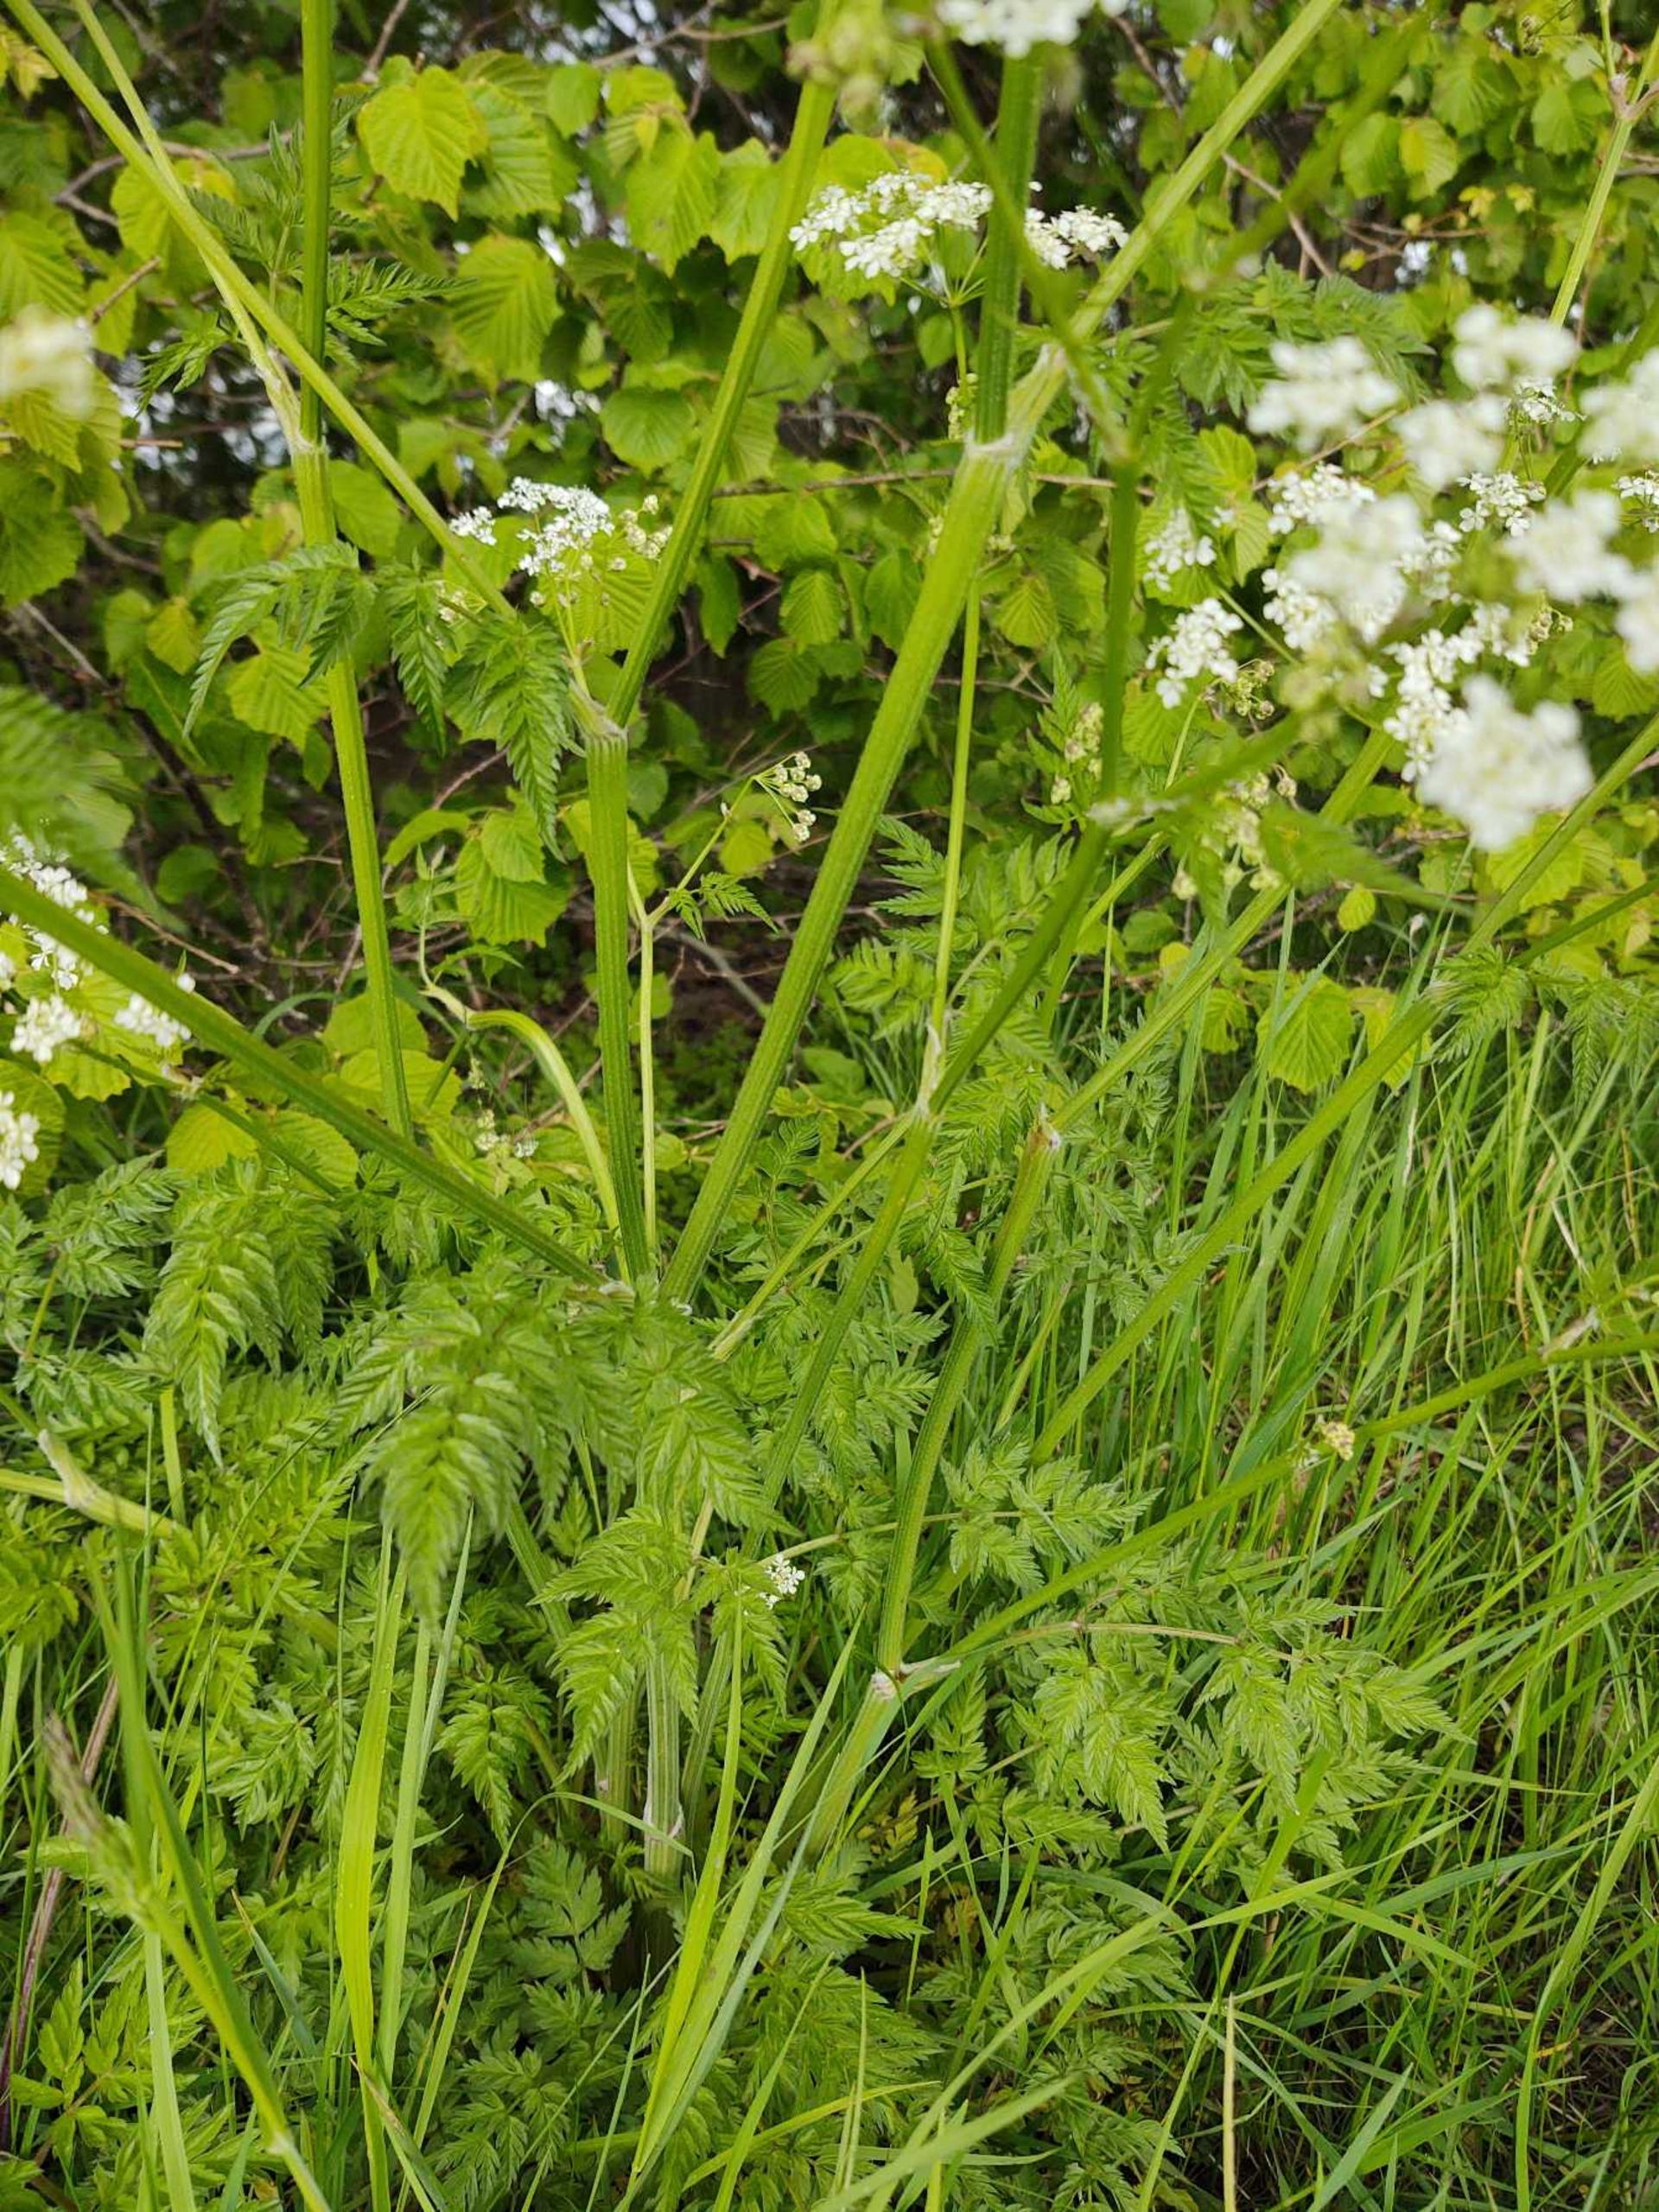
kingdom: Plantae
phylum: Tracheophyta
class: Magnoliopsida
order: Apiales
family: Apiaceae
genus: Anthriscus
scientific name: Anthriscus sylvestris
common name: Vild kørvel
